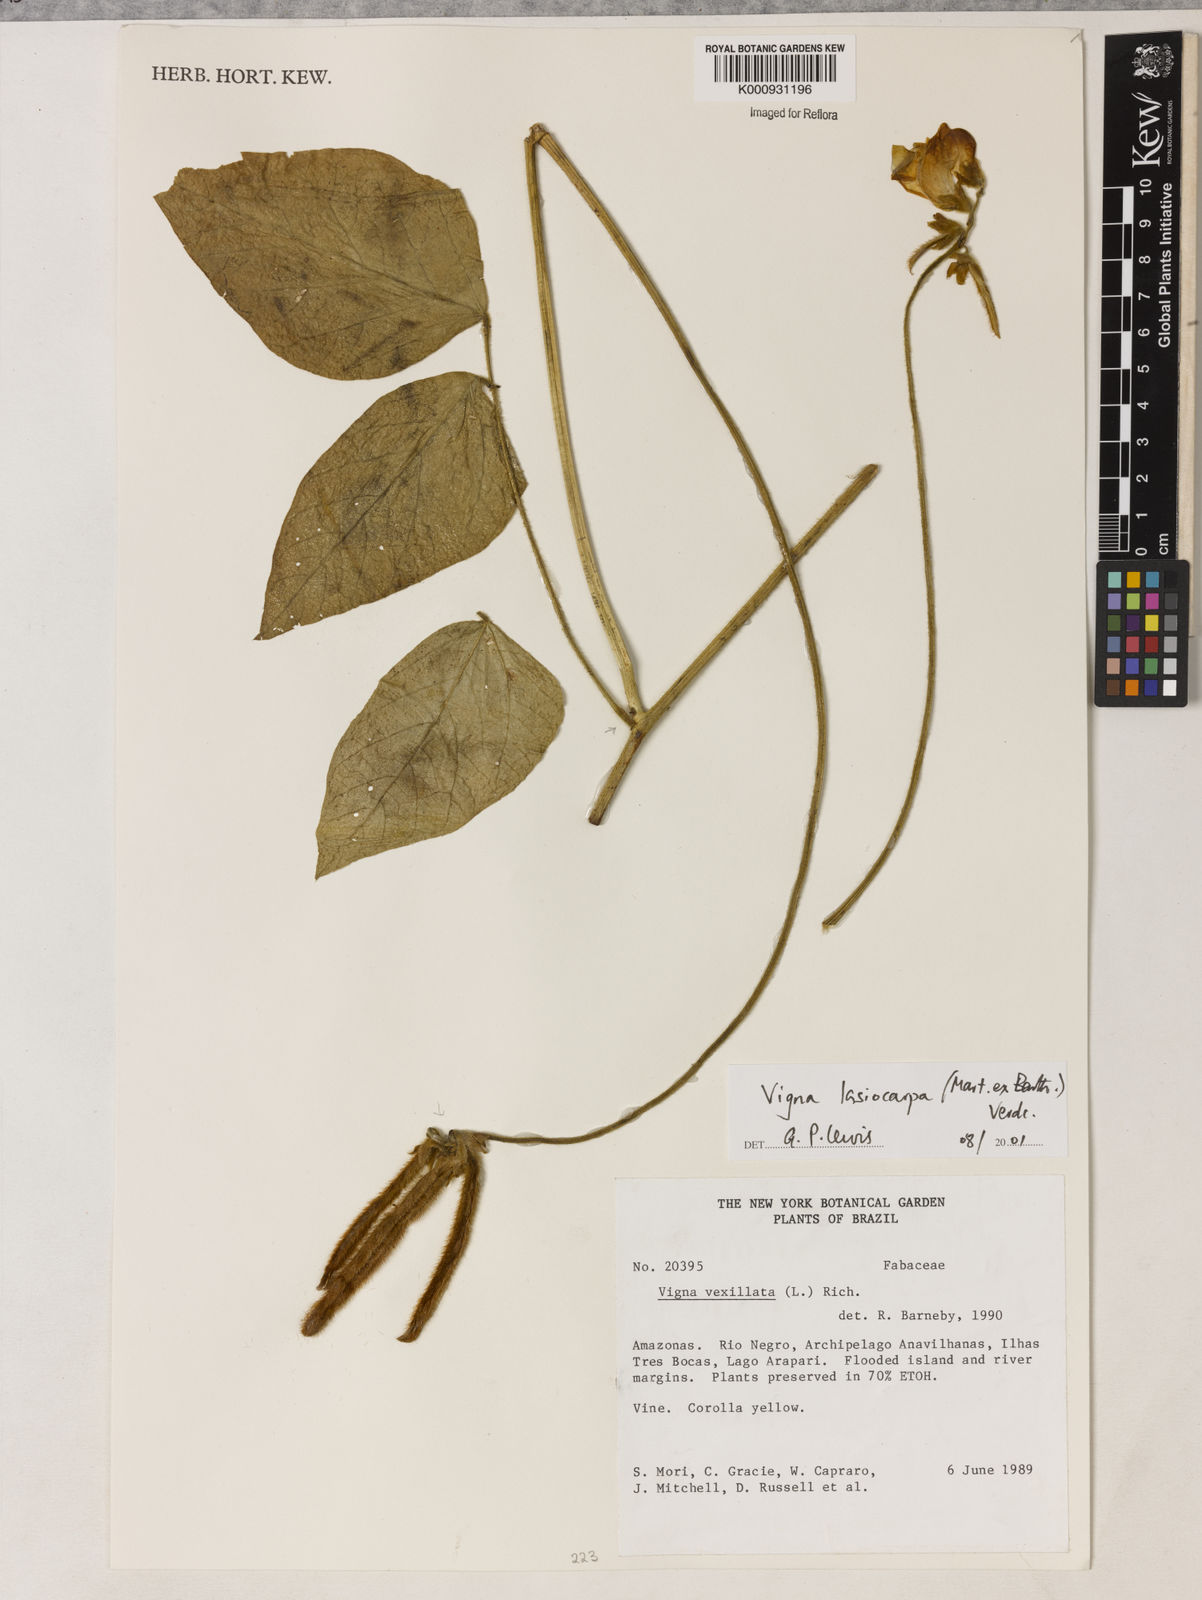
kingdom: Plantae
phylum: Tracheophyta
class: Magnoliopsida
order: Fabales
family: Fabaceae
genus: Vigna
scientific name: Vigna lasiocarpa
